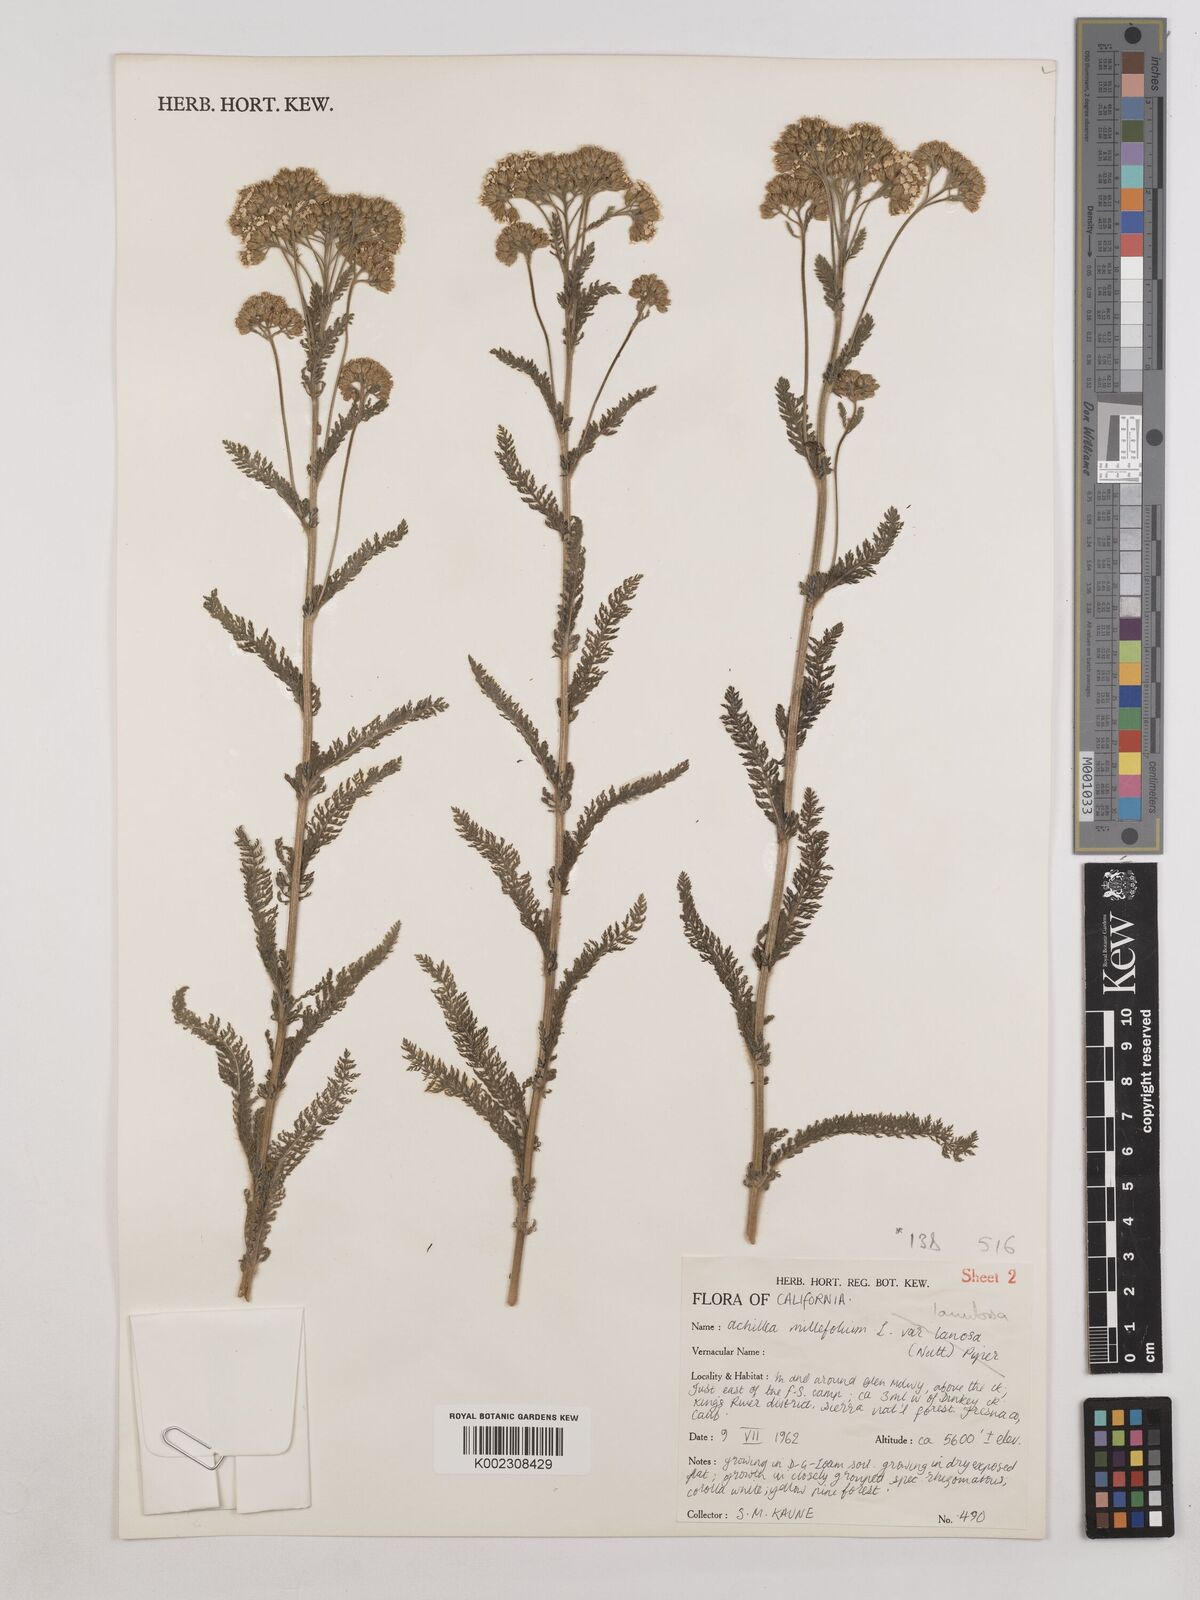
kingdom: Plantae
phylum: Tracheophyta
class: Magnoliopsida
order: Asterales
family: Asteraceae
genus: Achillea
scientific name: Achillea millefolium
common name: Yarrow
